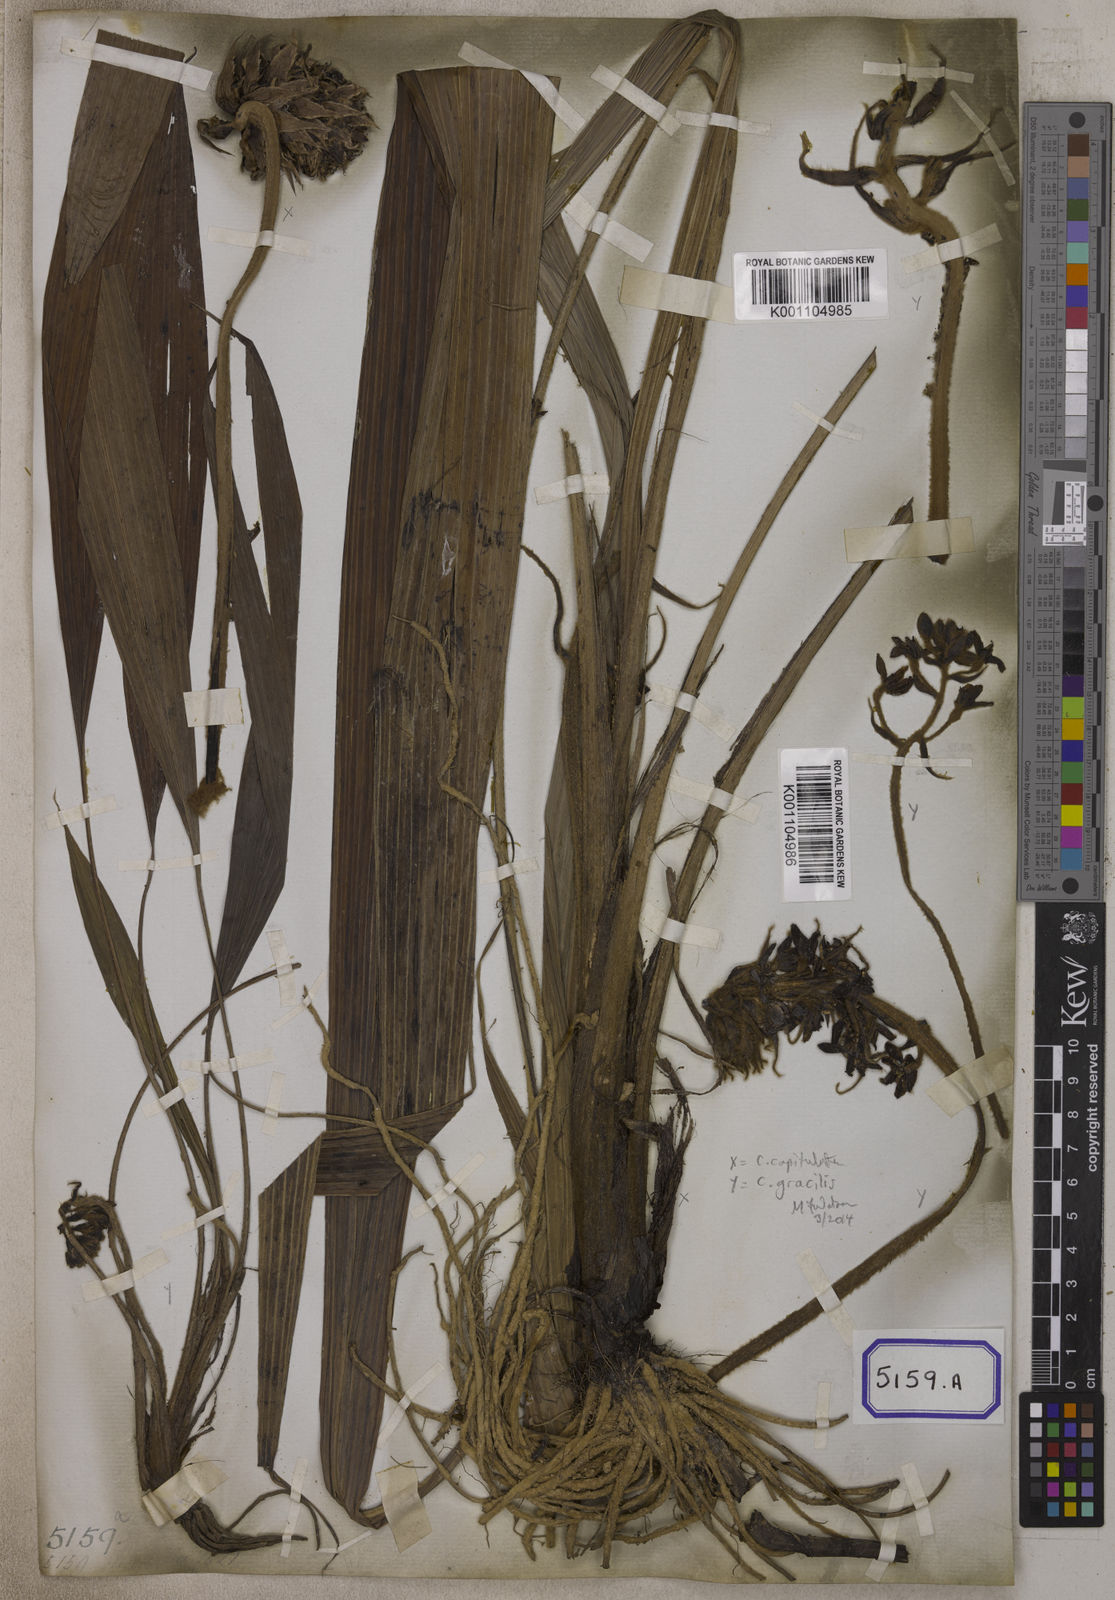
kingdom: Plantae
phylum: Tracheophyta
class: Liliopsida
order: Asparagales
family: Hypoxidaceae
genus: Curculigo
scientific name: Curculigo capitulata
